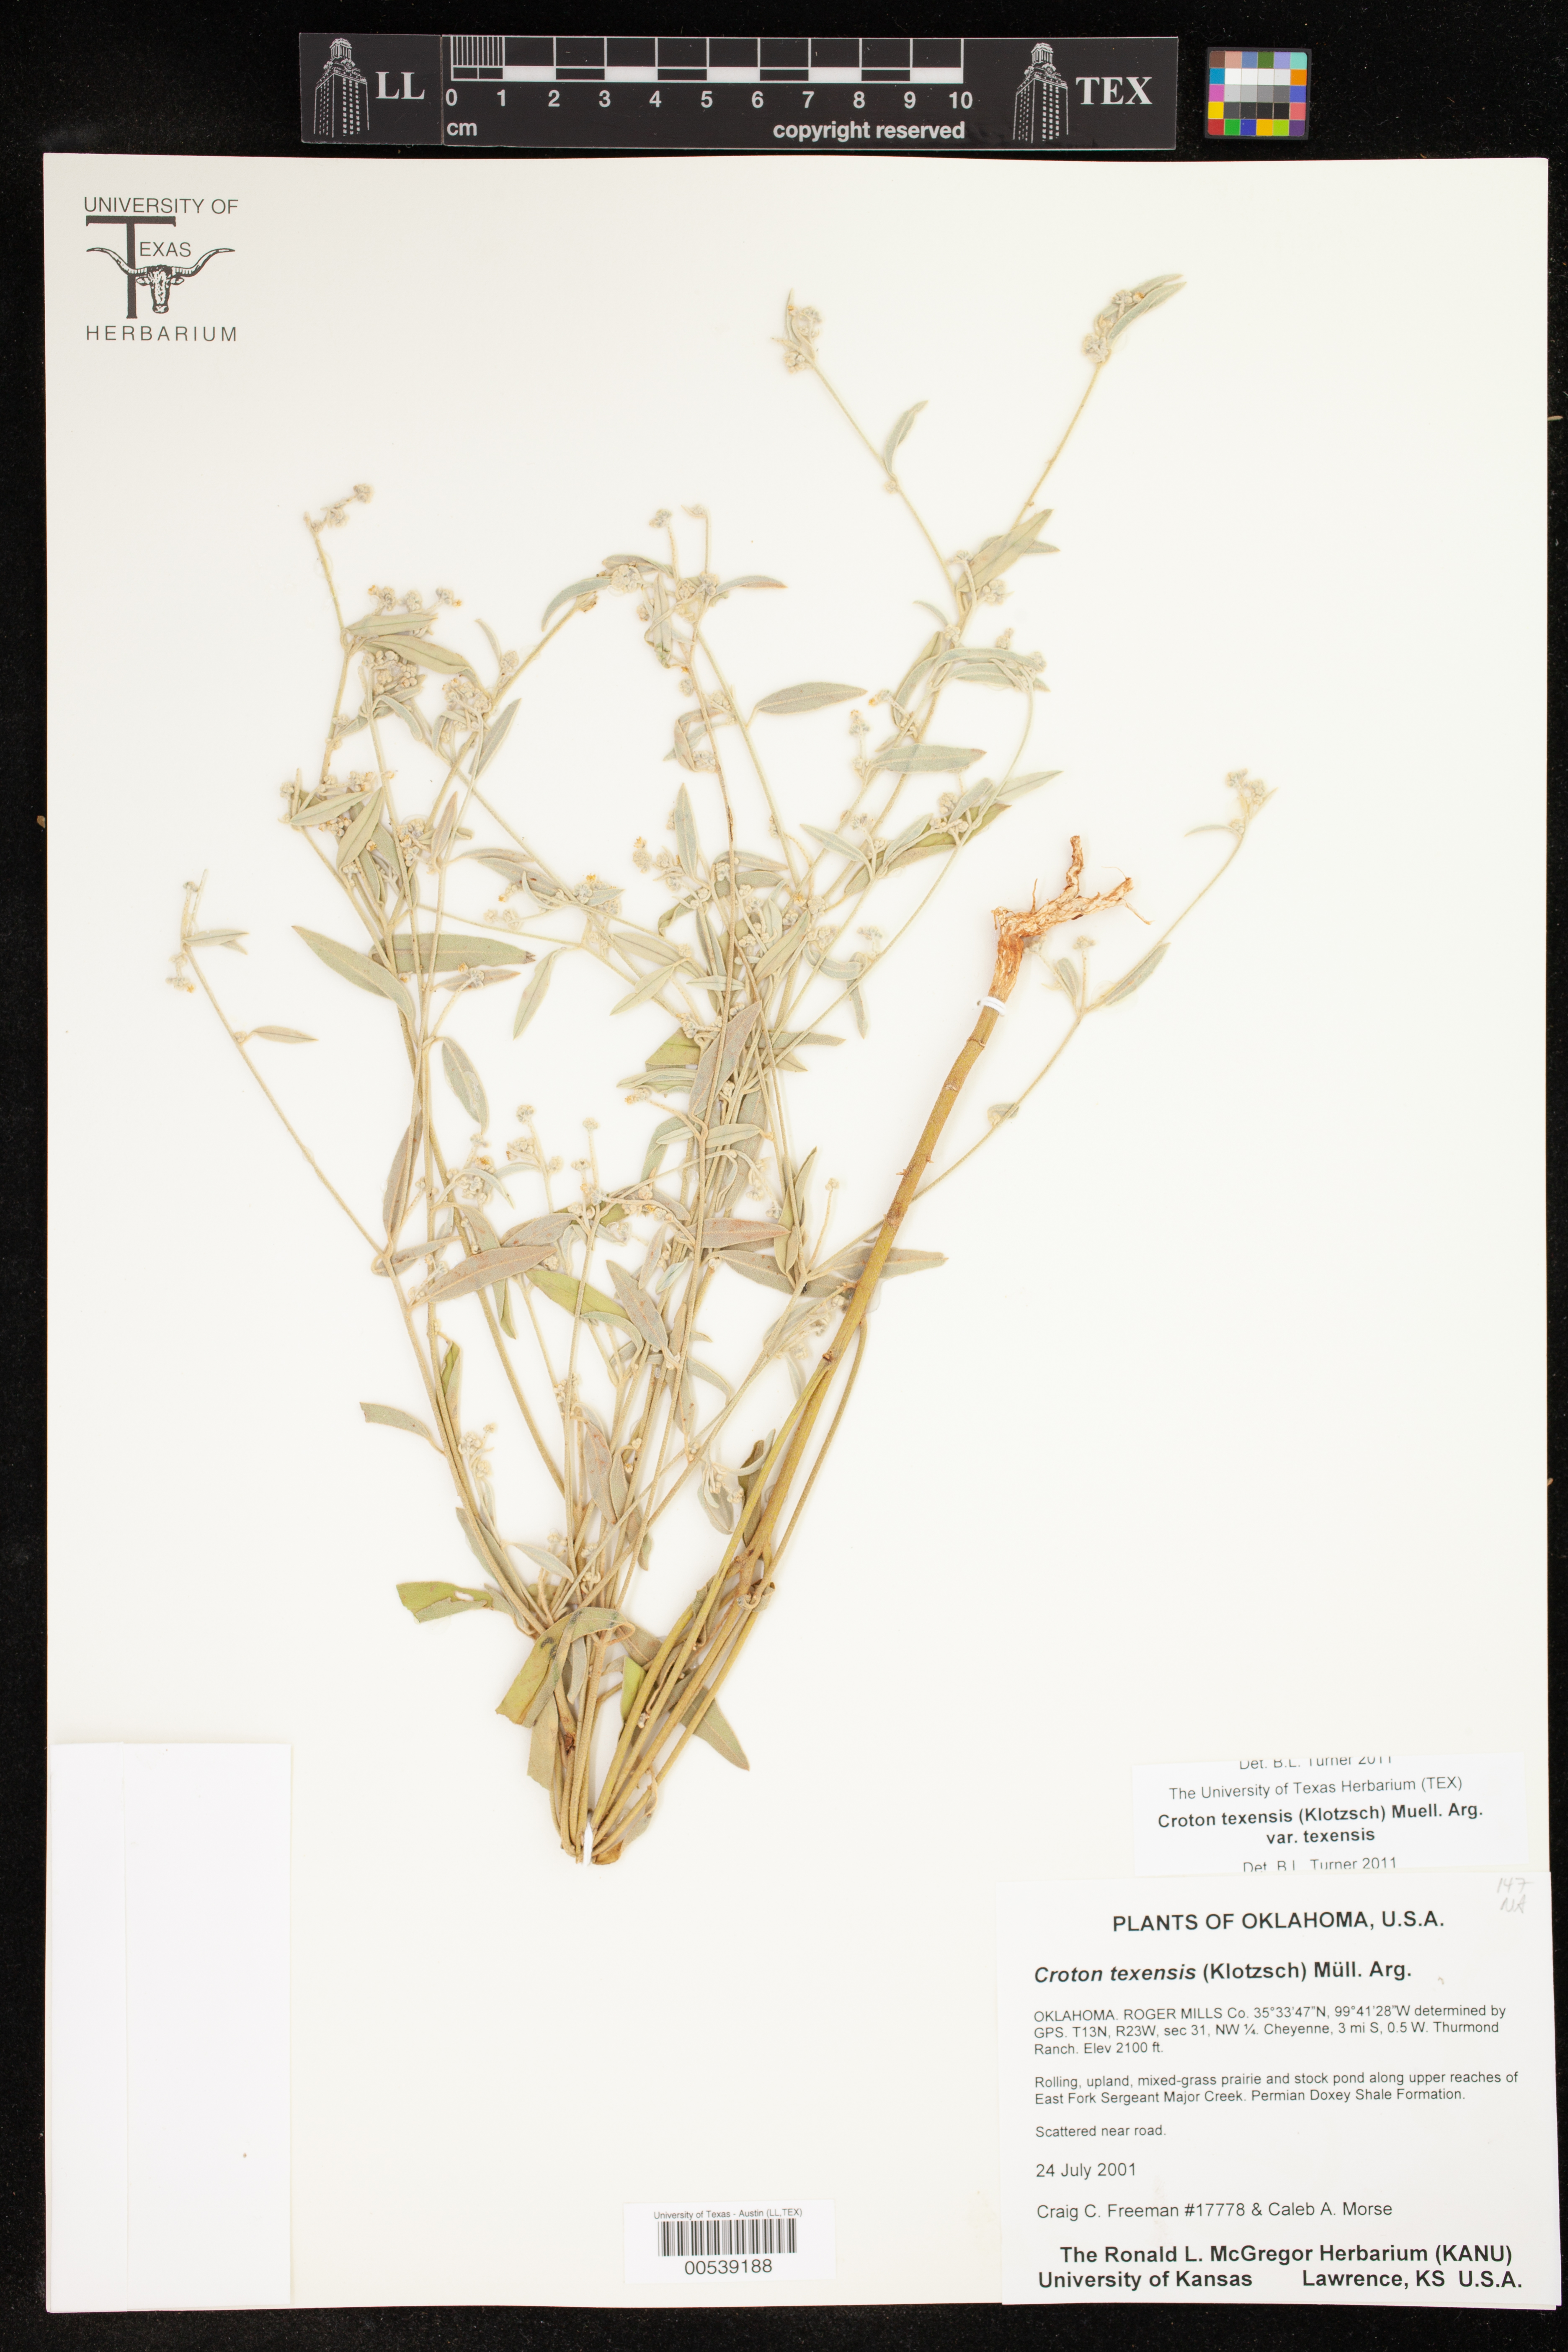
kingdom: Plantae
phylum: Tracheophyta
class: Magnoliopsida
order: Malpighiales
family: Euphorbiaceae
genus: Croton
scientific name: Croton texensis
